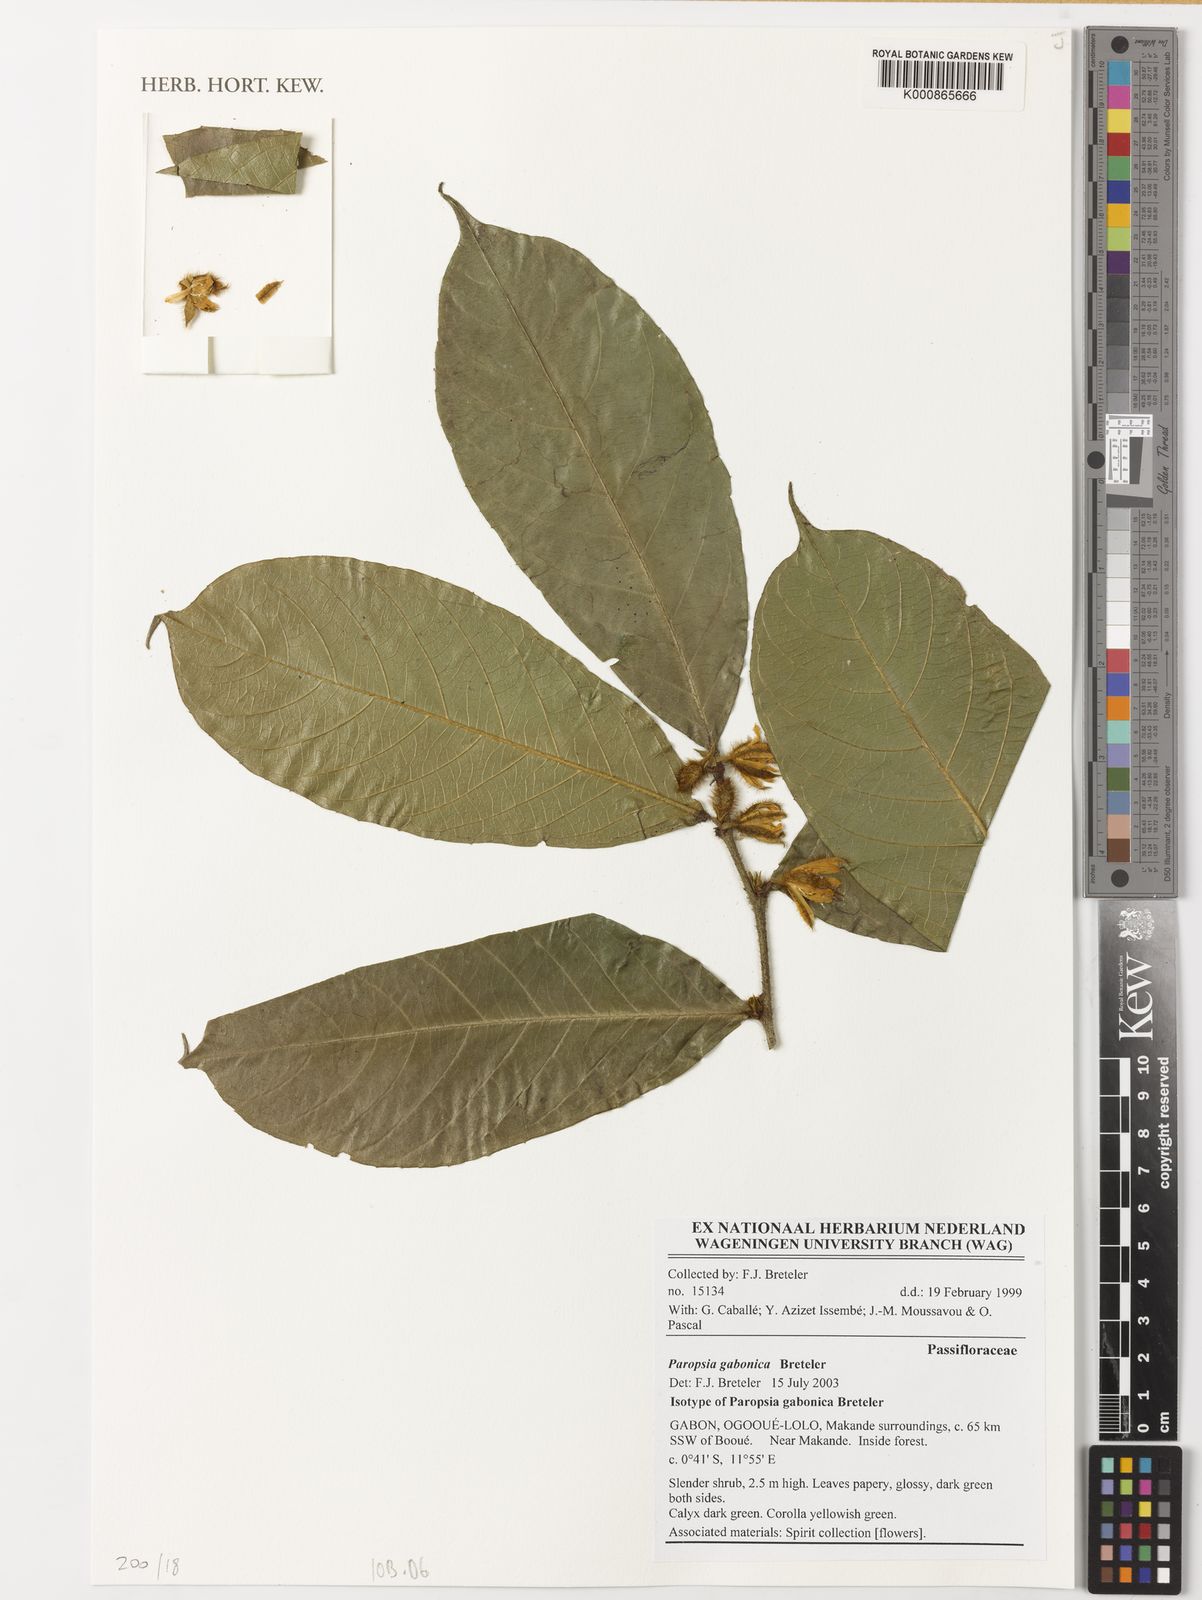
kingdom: Plantae
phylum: Tracheophyta
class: Magnoliopsida
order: Malpighiales
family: Passifloraceae
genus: Paropsia
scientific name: Paropsia gabonica
